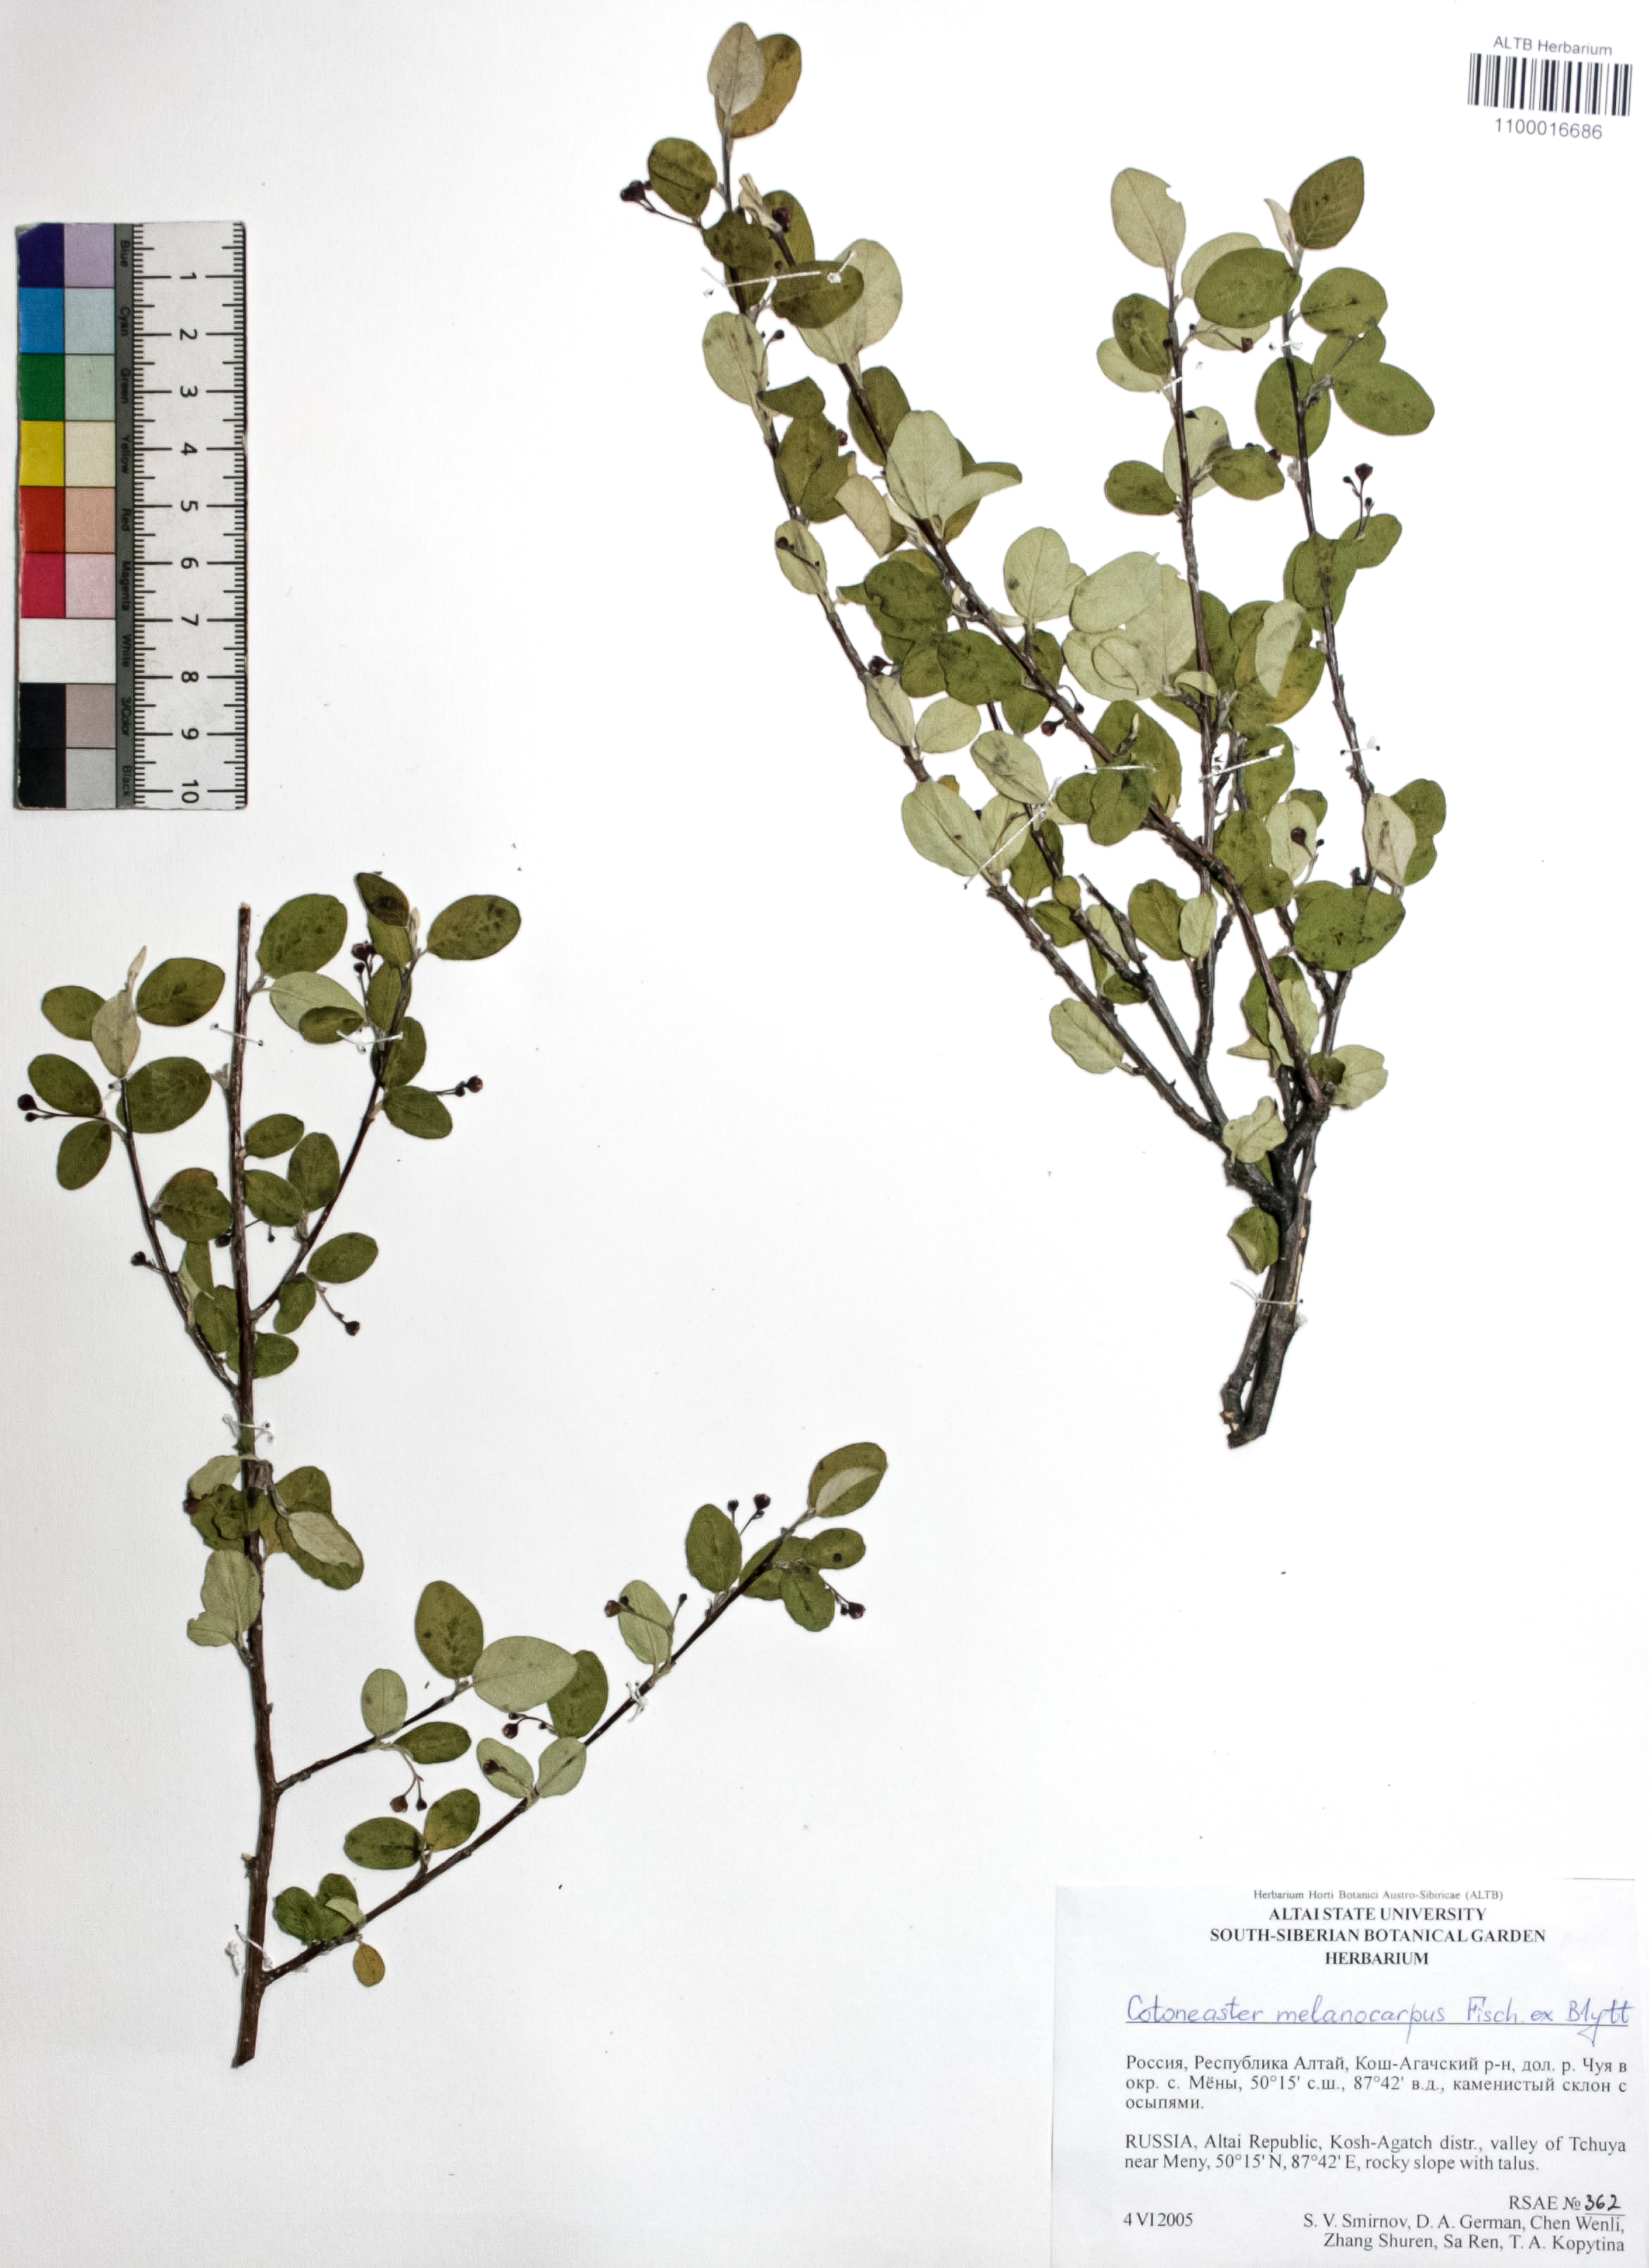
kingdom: Plantae
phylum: Tracheophyta
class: Magnoliopsida
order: Rosales
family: Rosaceae
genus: Cotoneaster
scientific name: Cotoneaster niger
